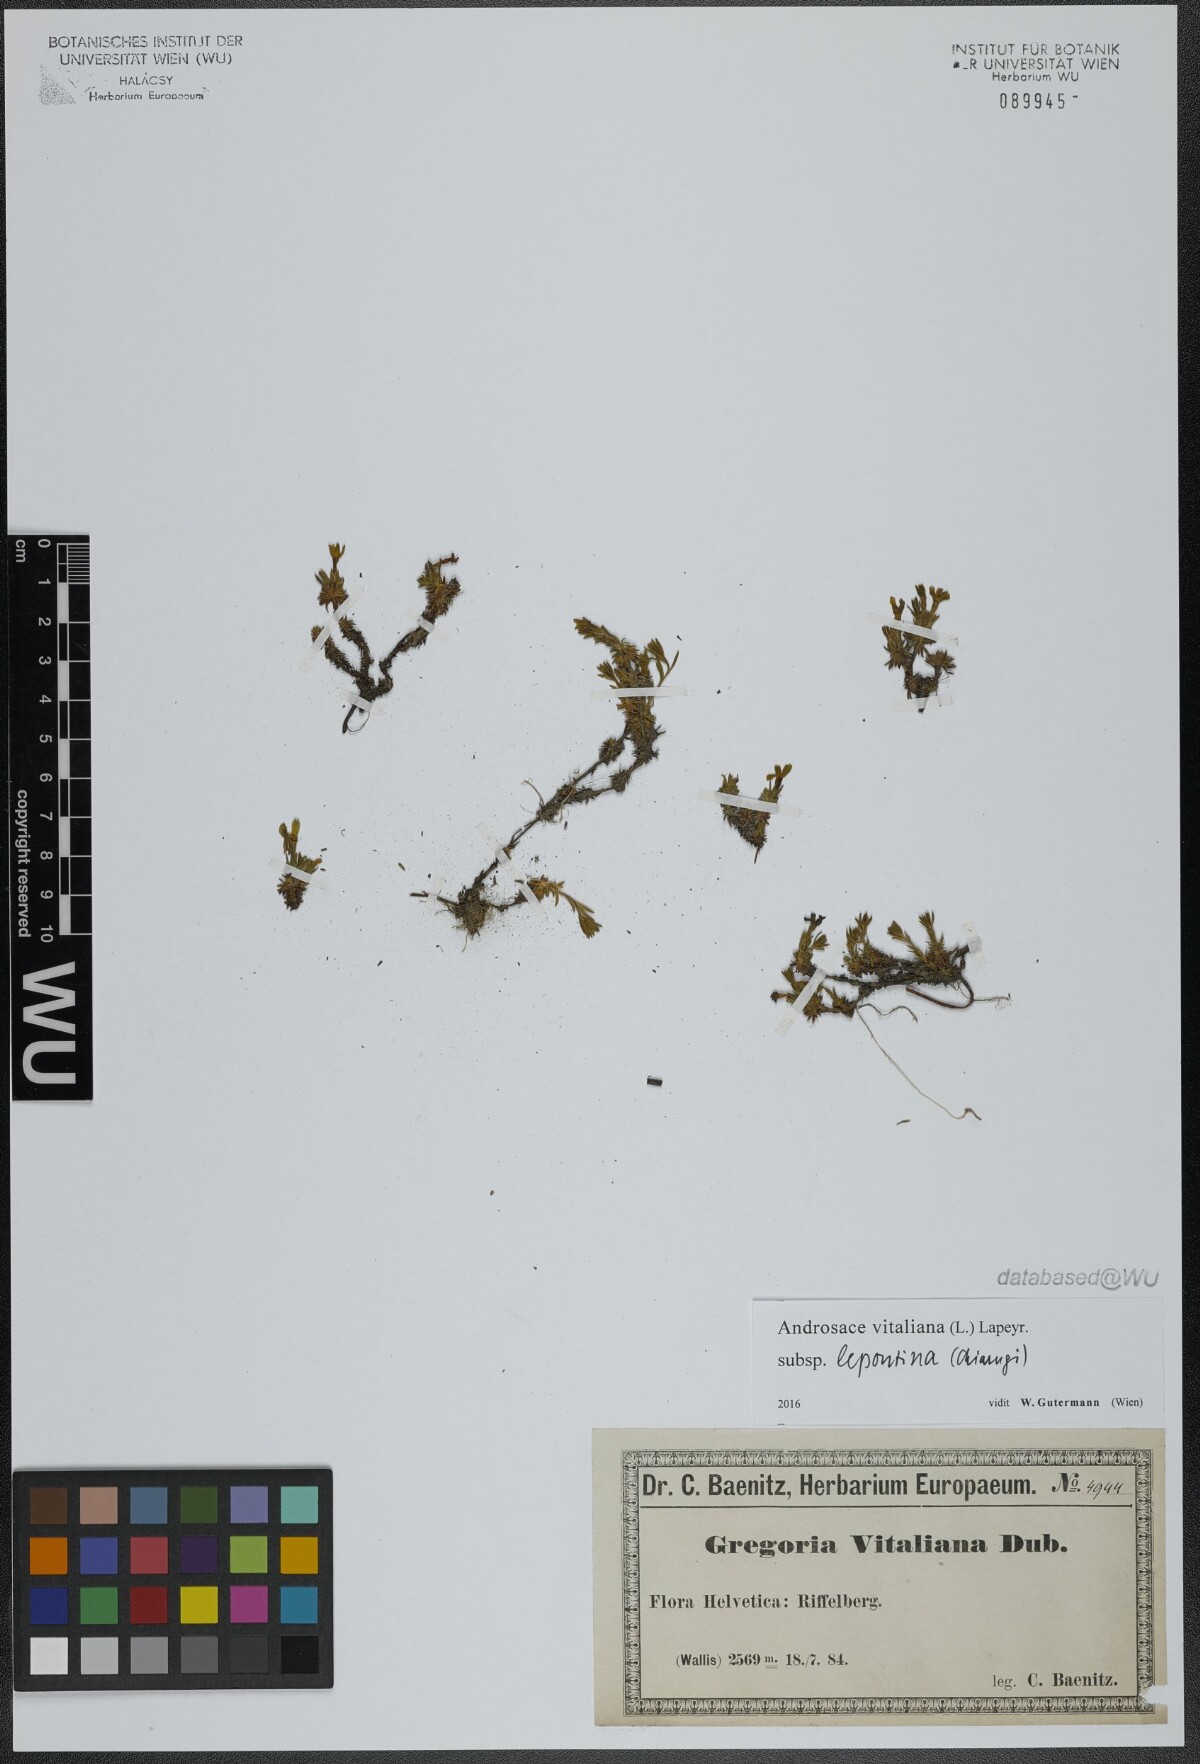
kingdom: Plantae
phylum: Tracheophyta
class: Magnoliopsida
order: Ericales
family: Primulaceae
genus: Androsace
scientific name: Androsace vitaliana
